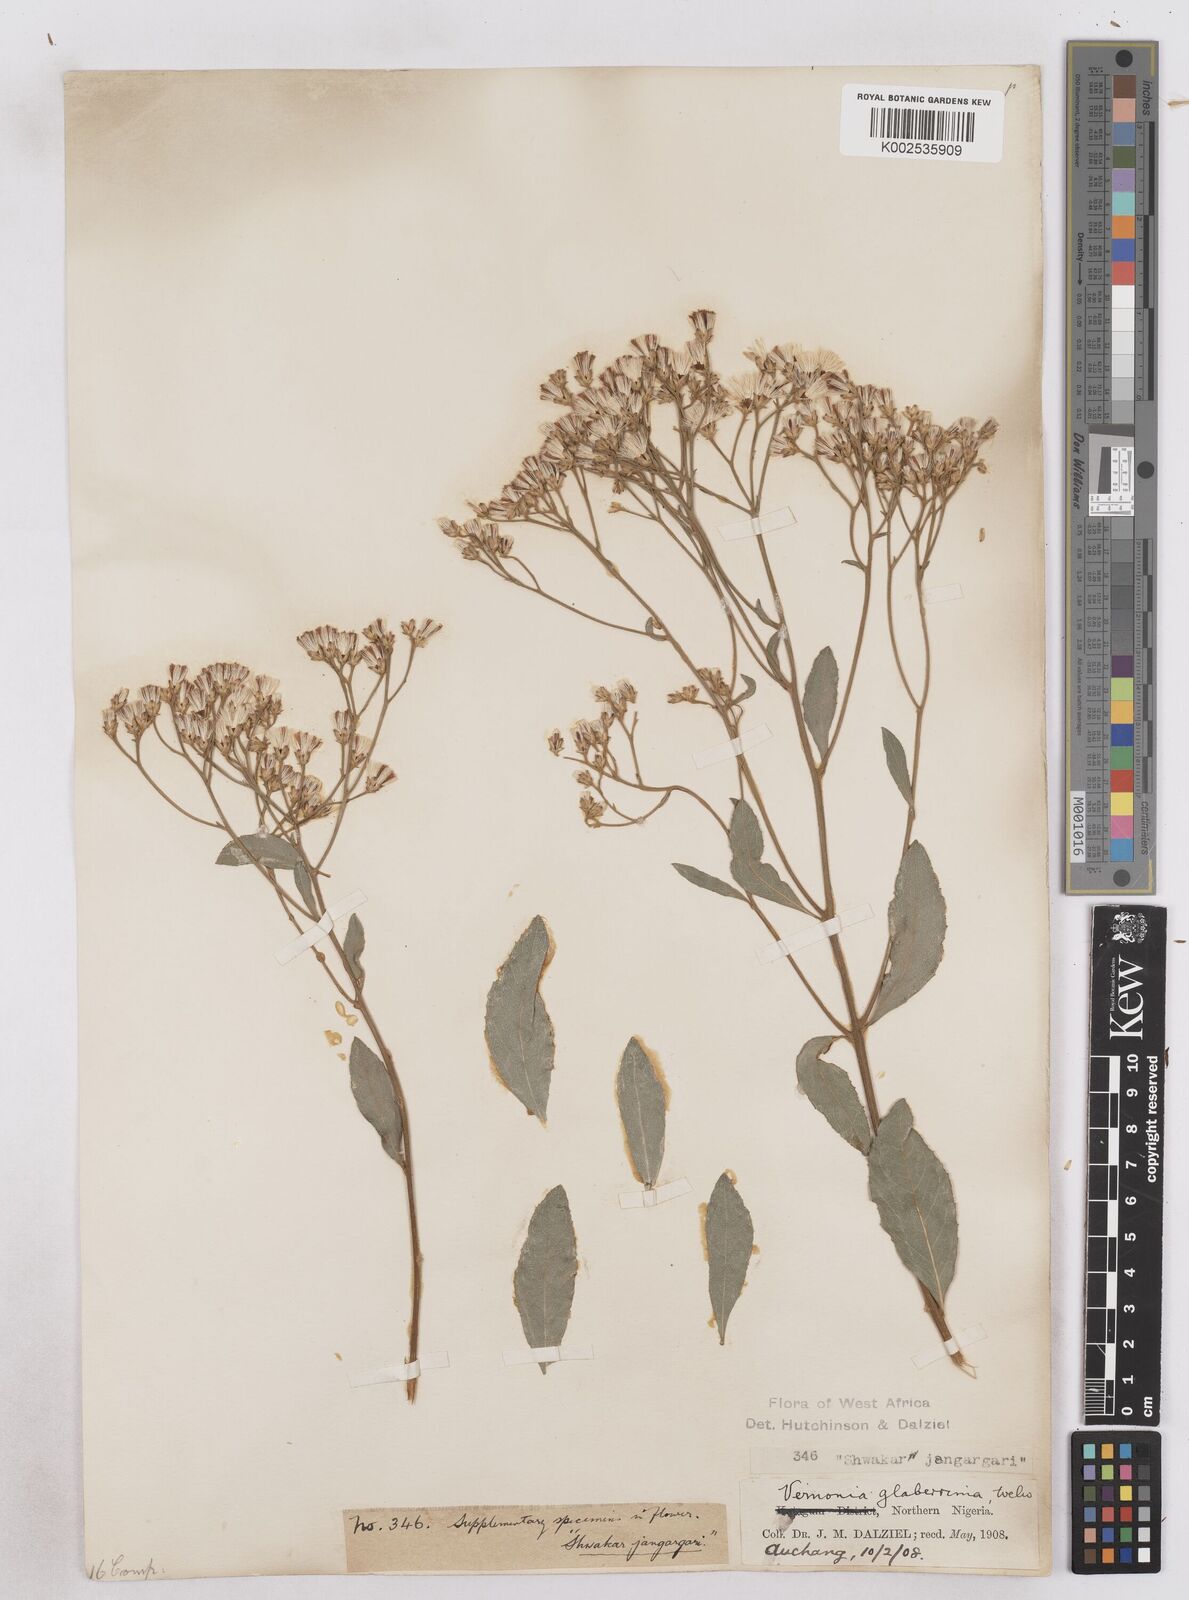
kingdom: Plantae
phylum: Tracheophyta
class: Magnoliopsida
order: Asterales
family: Asteraceae
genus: Gymnanthemum
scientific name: Gymnanthemum glaberrimum
